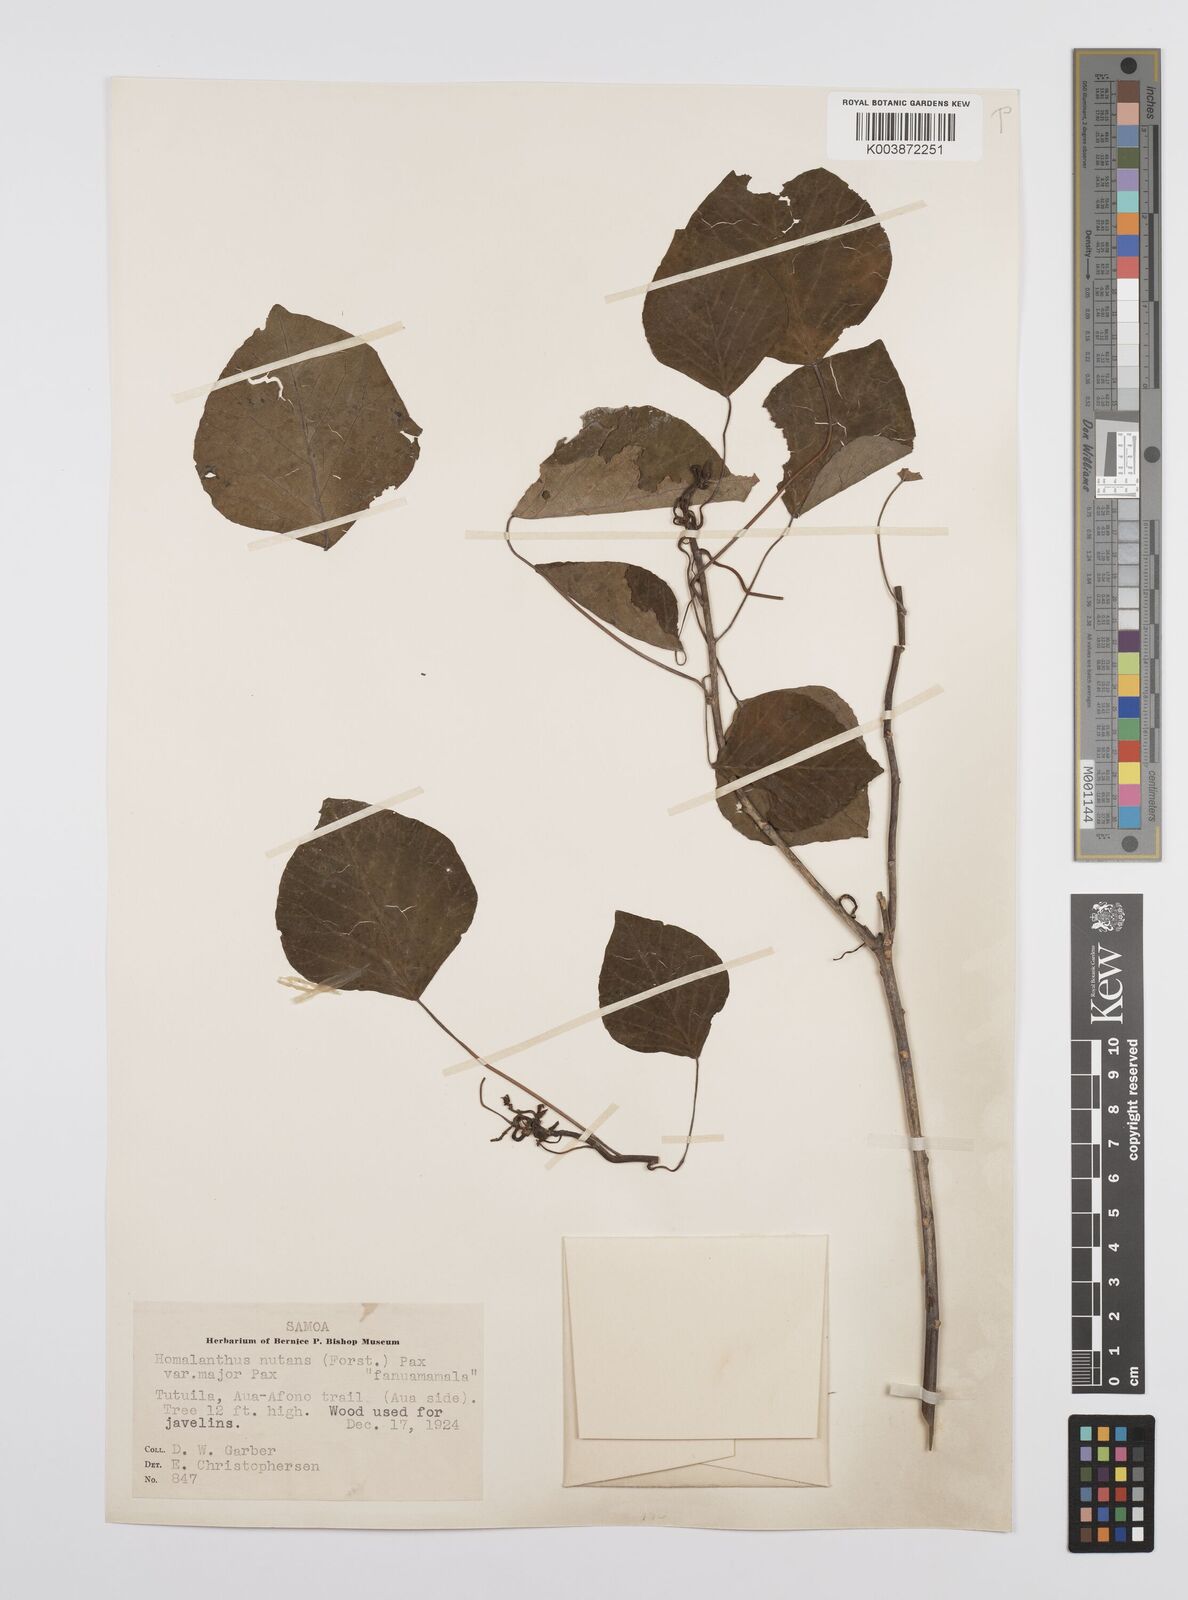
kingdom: Plantae
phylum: Tracheophyta
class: Magnoliopsida
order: Malpighiales
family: Euphorbiaceae
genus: Homalanthus
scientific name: Homalanthus nutans
